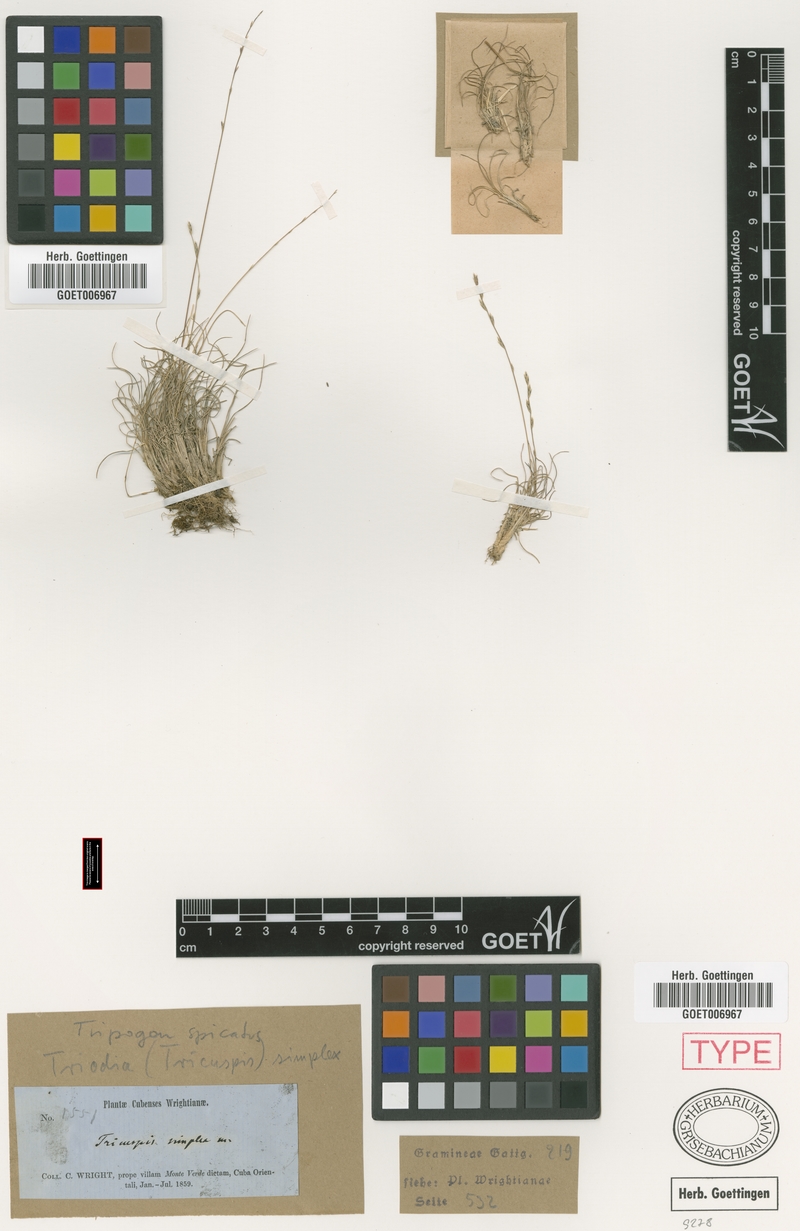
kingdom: Plantae
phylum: Tracheophyta
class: Liliopsida
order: Poales
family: Poaceae
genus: Tripogonella
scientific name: Tripogonella spicata
